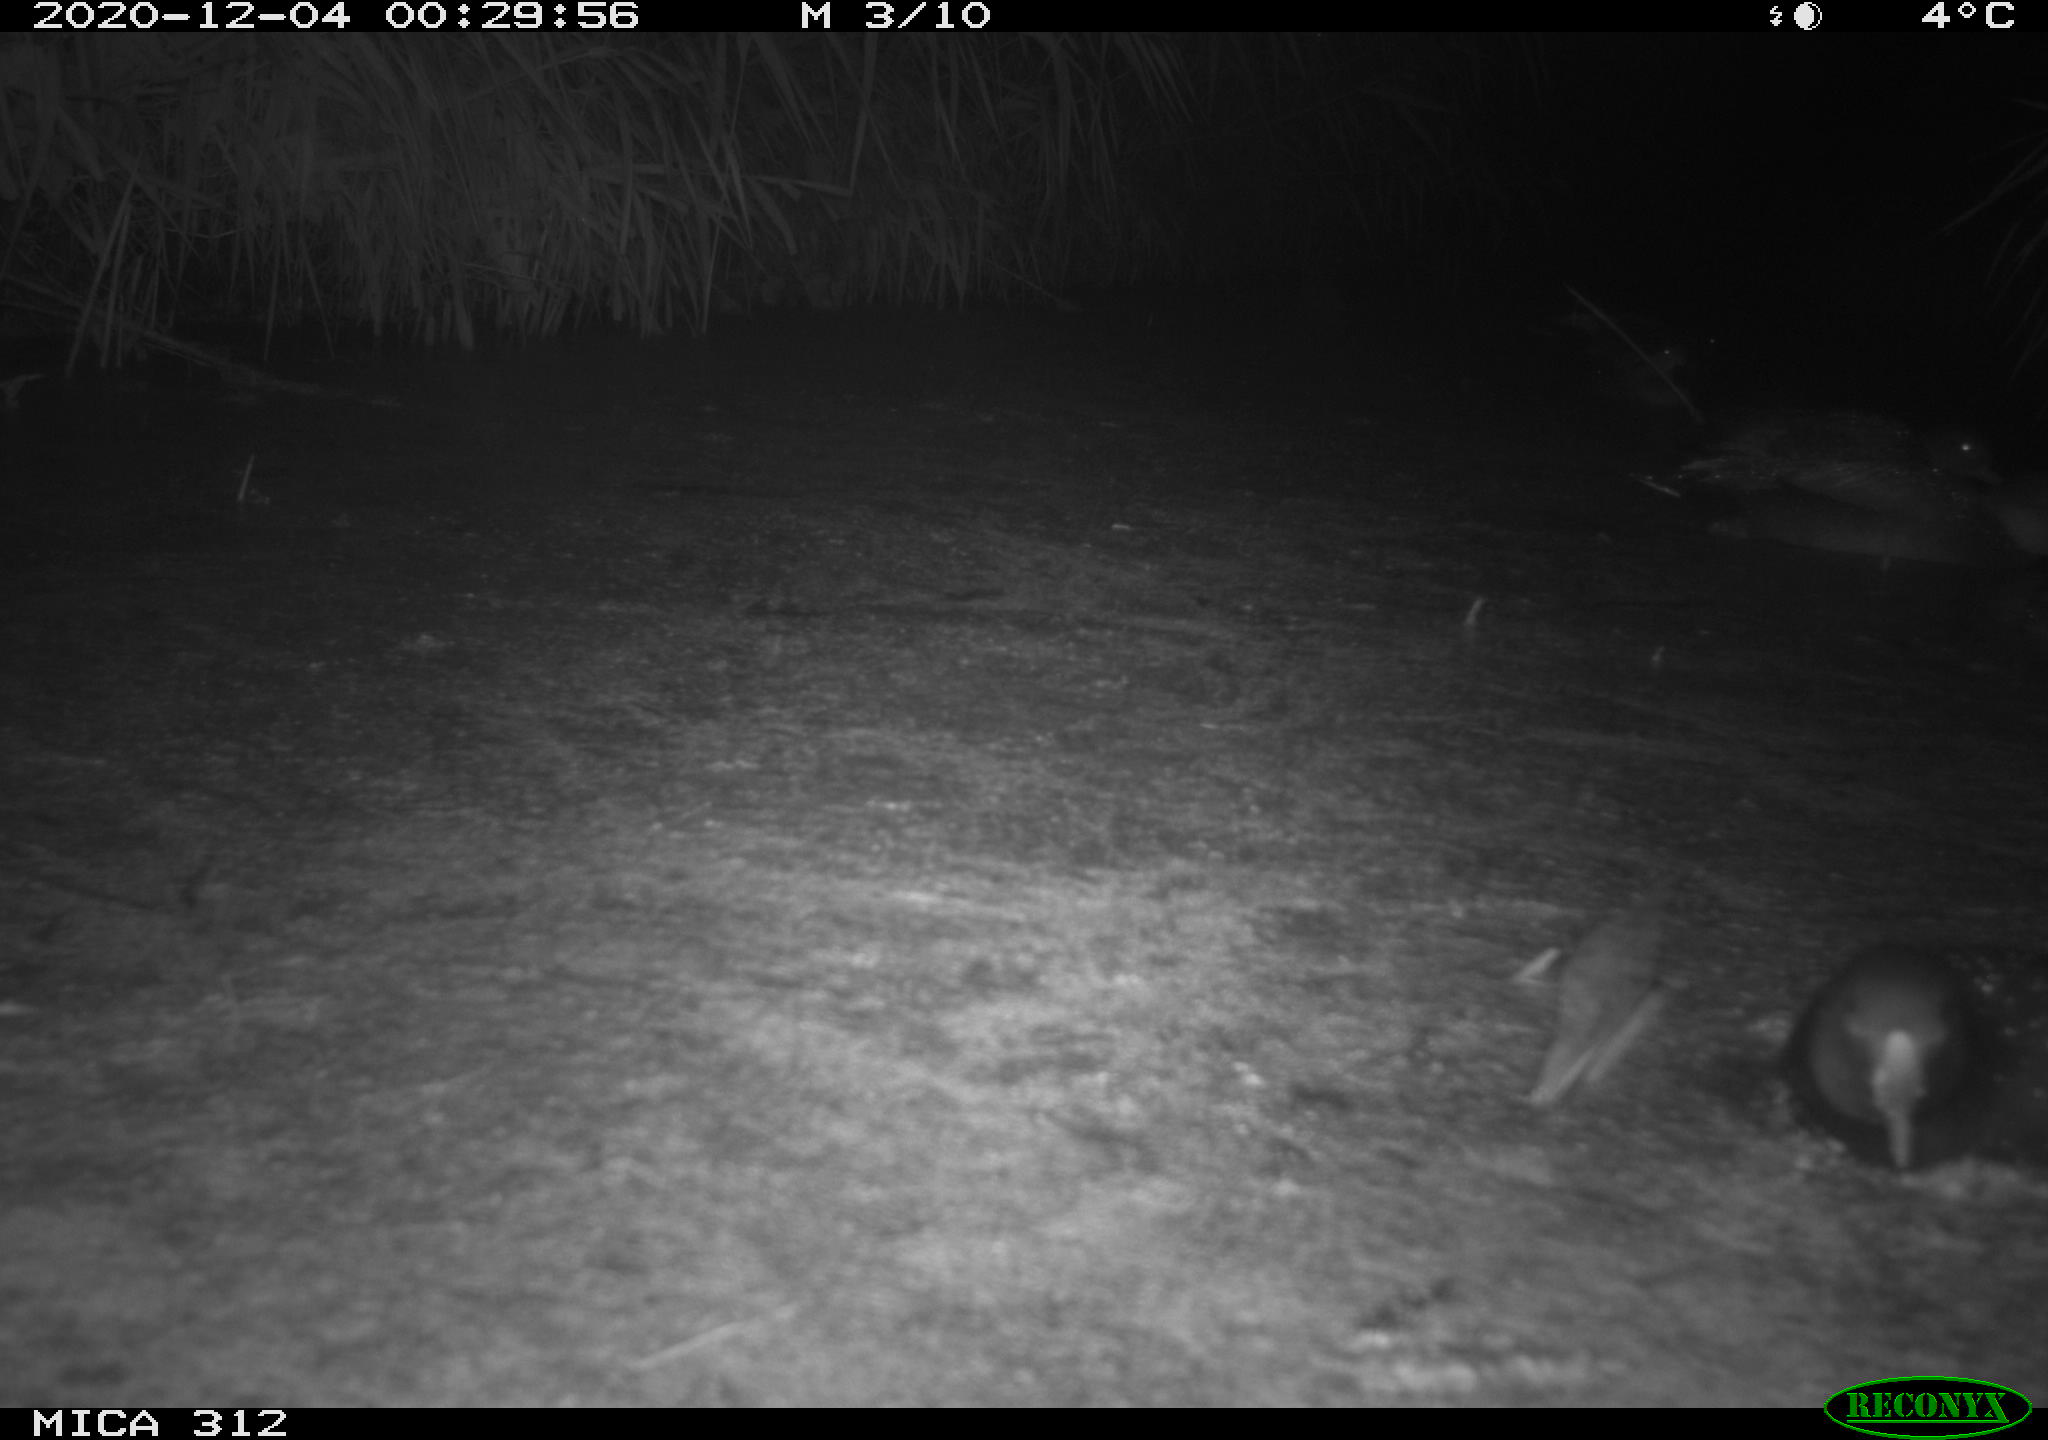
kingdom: Animalia
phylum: Chordata
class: Aves
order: Gruiformes
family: Rallidae
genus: Gallinula
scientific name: Gallinula chloropus
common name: Common moorhen
